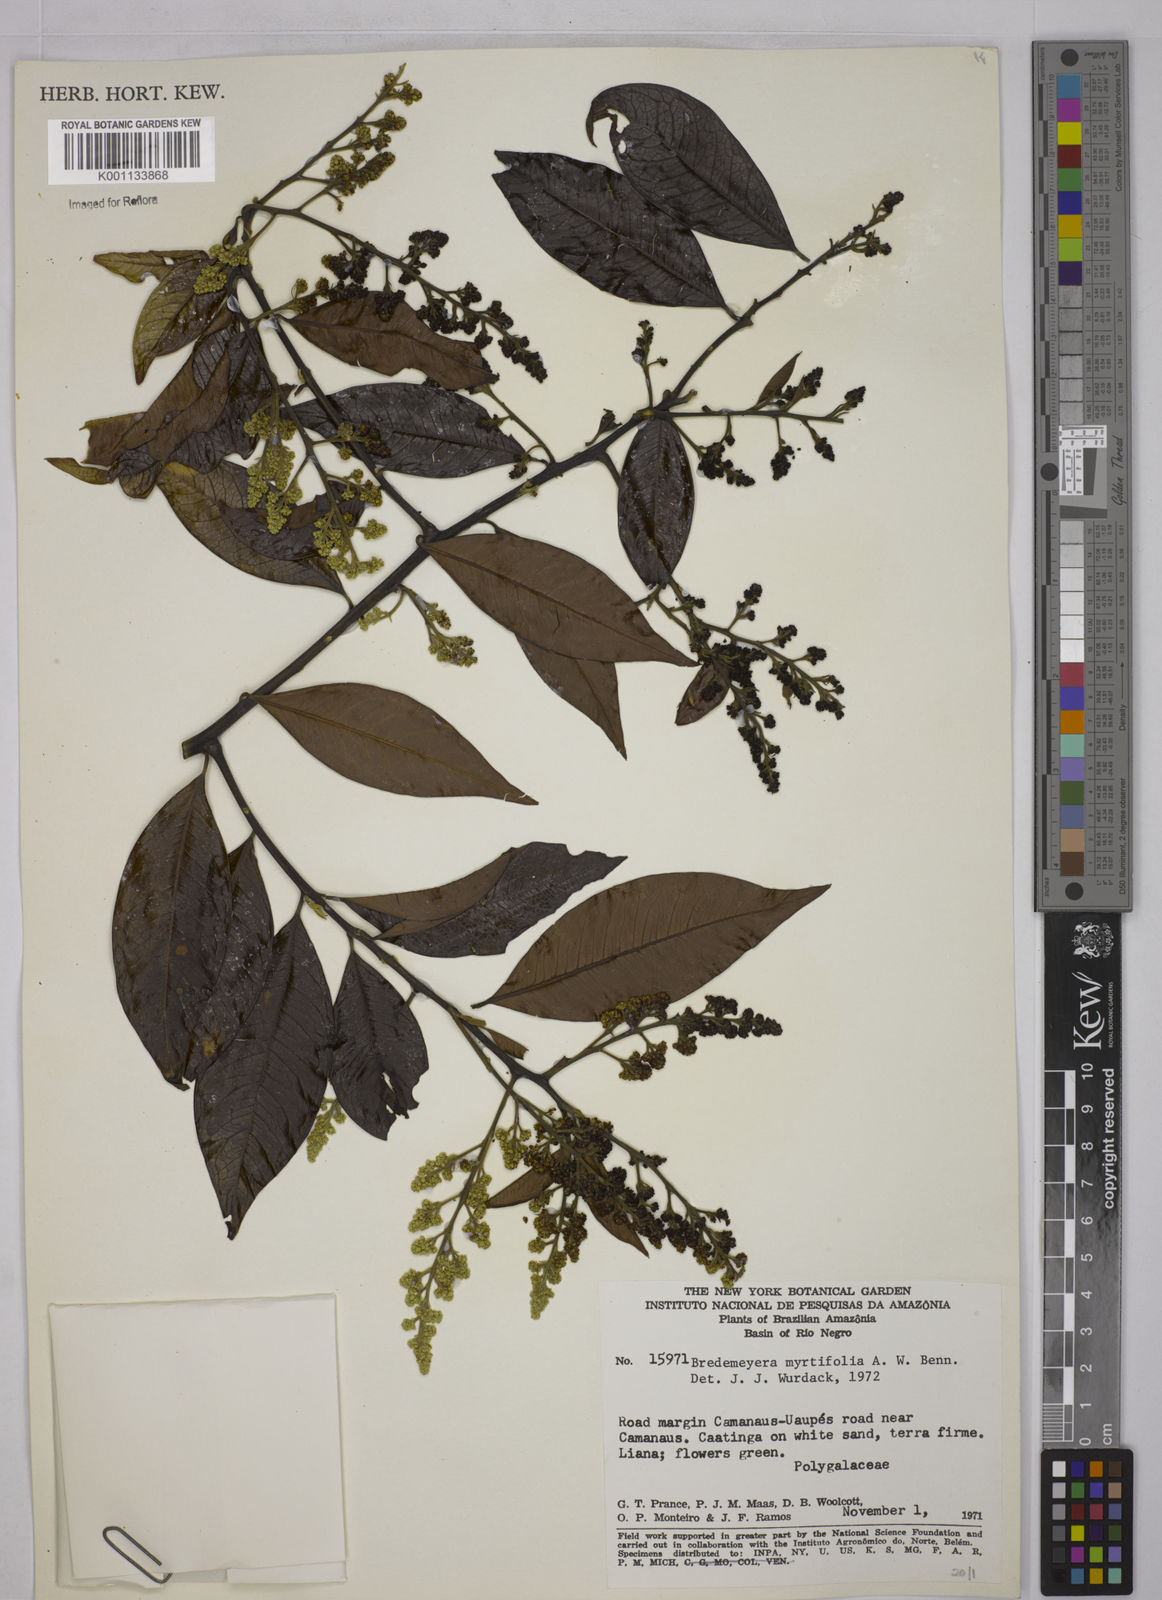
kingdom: Plantae
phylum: Tracheophyta
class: Magnoliopsida
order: Fabales
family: Polygalaceae
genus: Bredemeyera
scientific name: Bredemeyera
